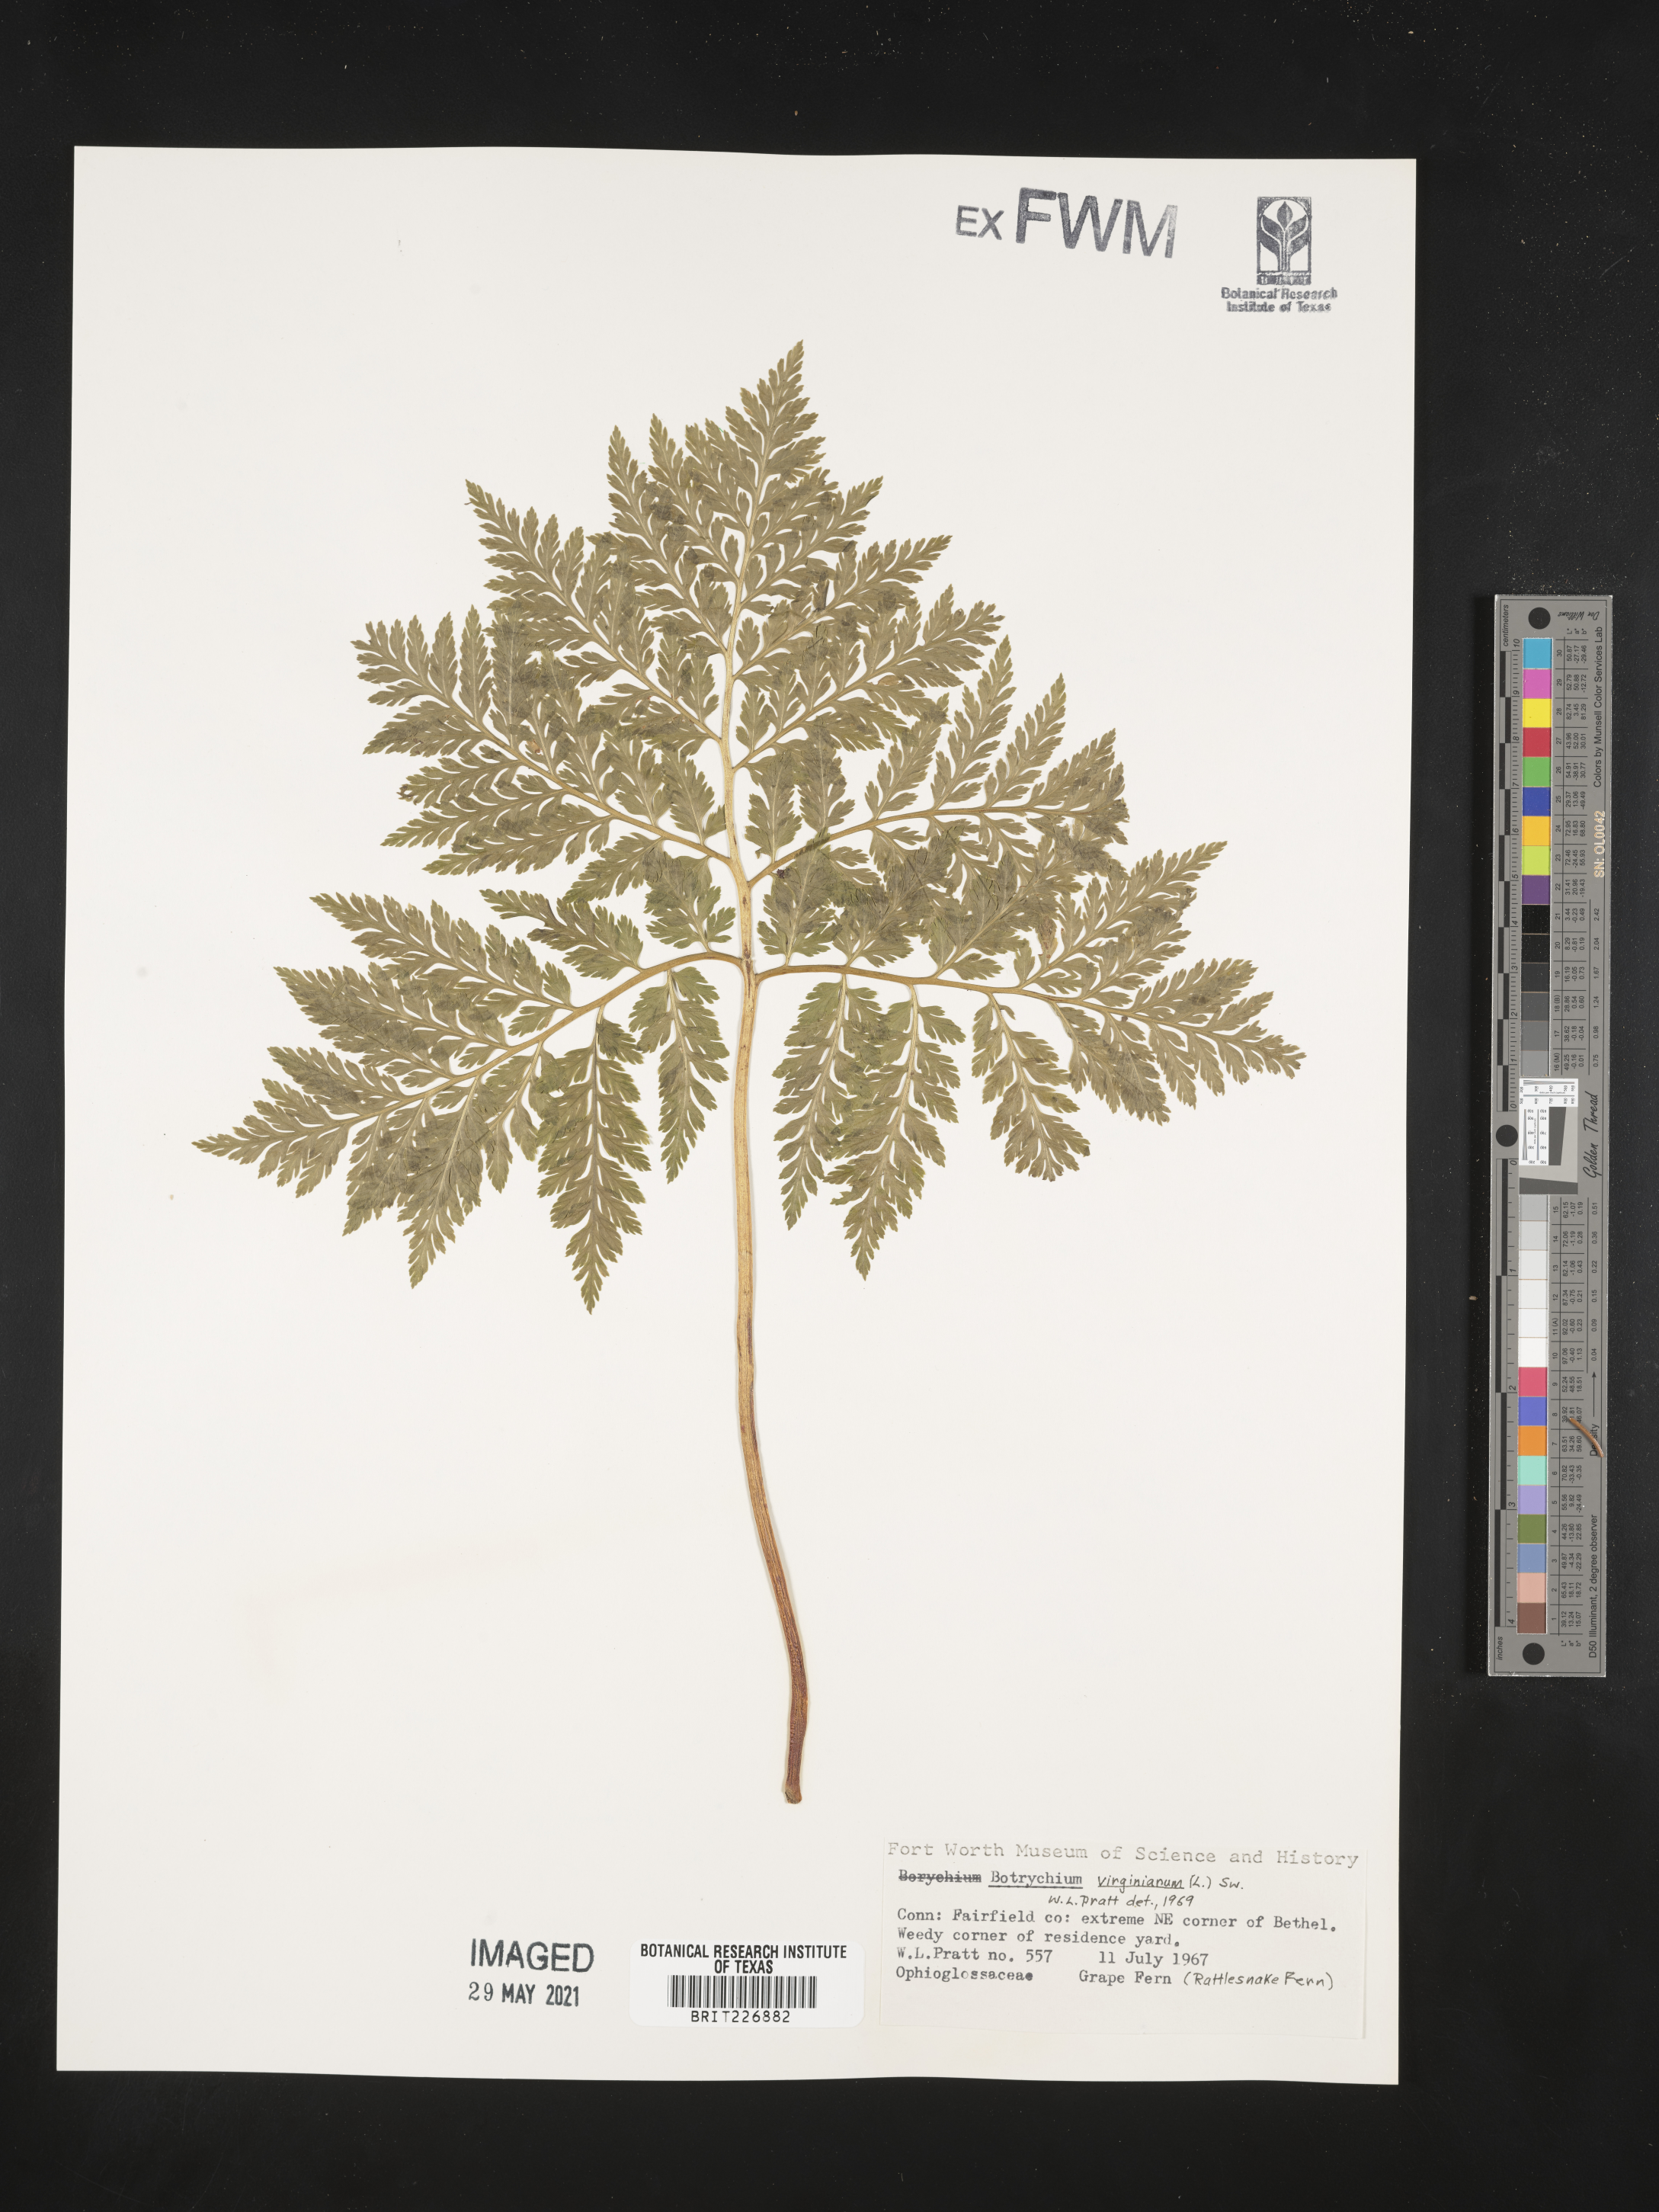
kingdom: Plantae
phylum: Tracheophyta
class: Polypodiopsida
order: Ophioglossales
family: Ophioglossaceae
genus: Botrypus
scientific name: Botrypus virginianus
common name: Common grapefern
